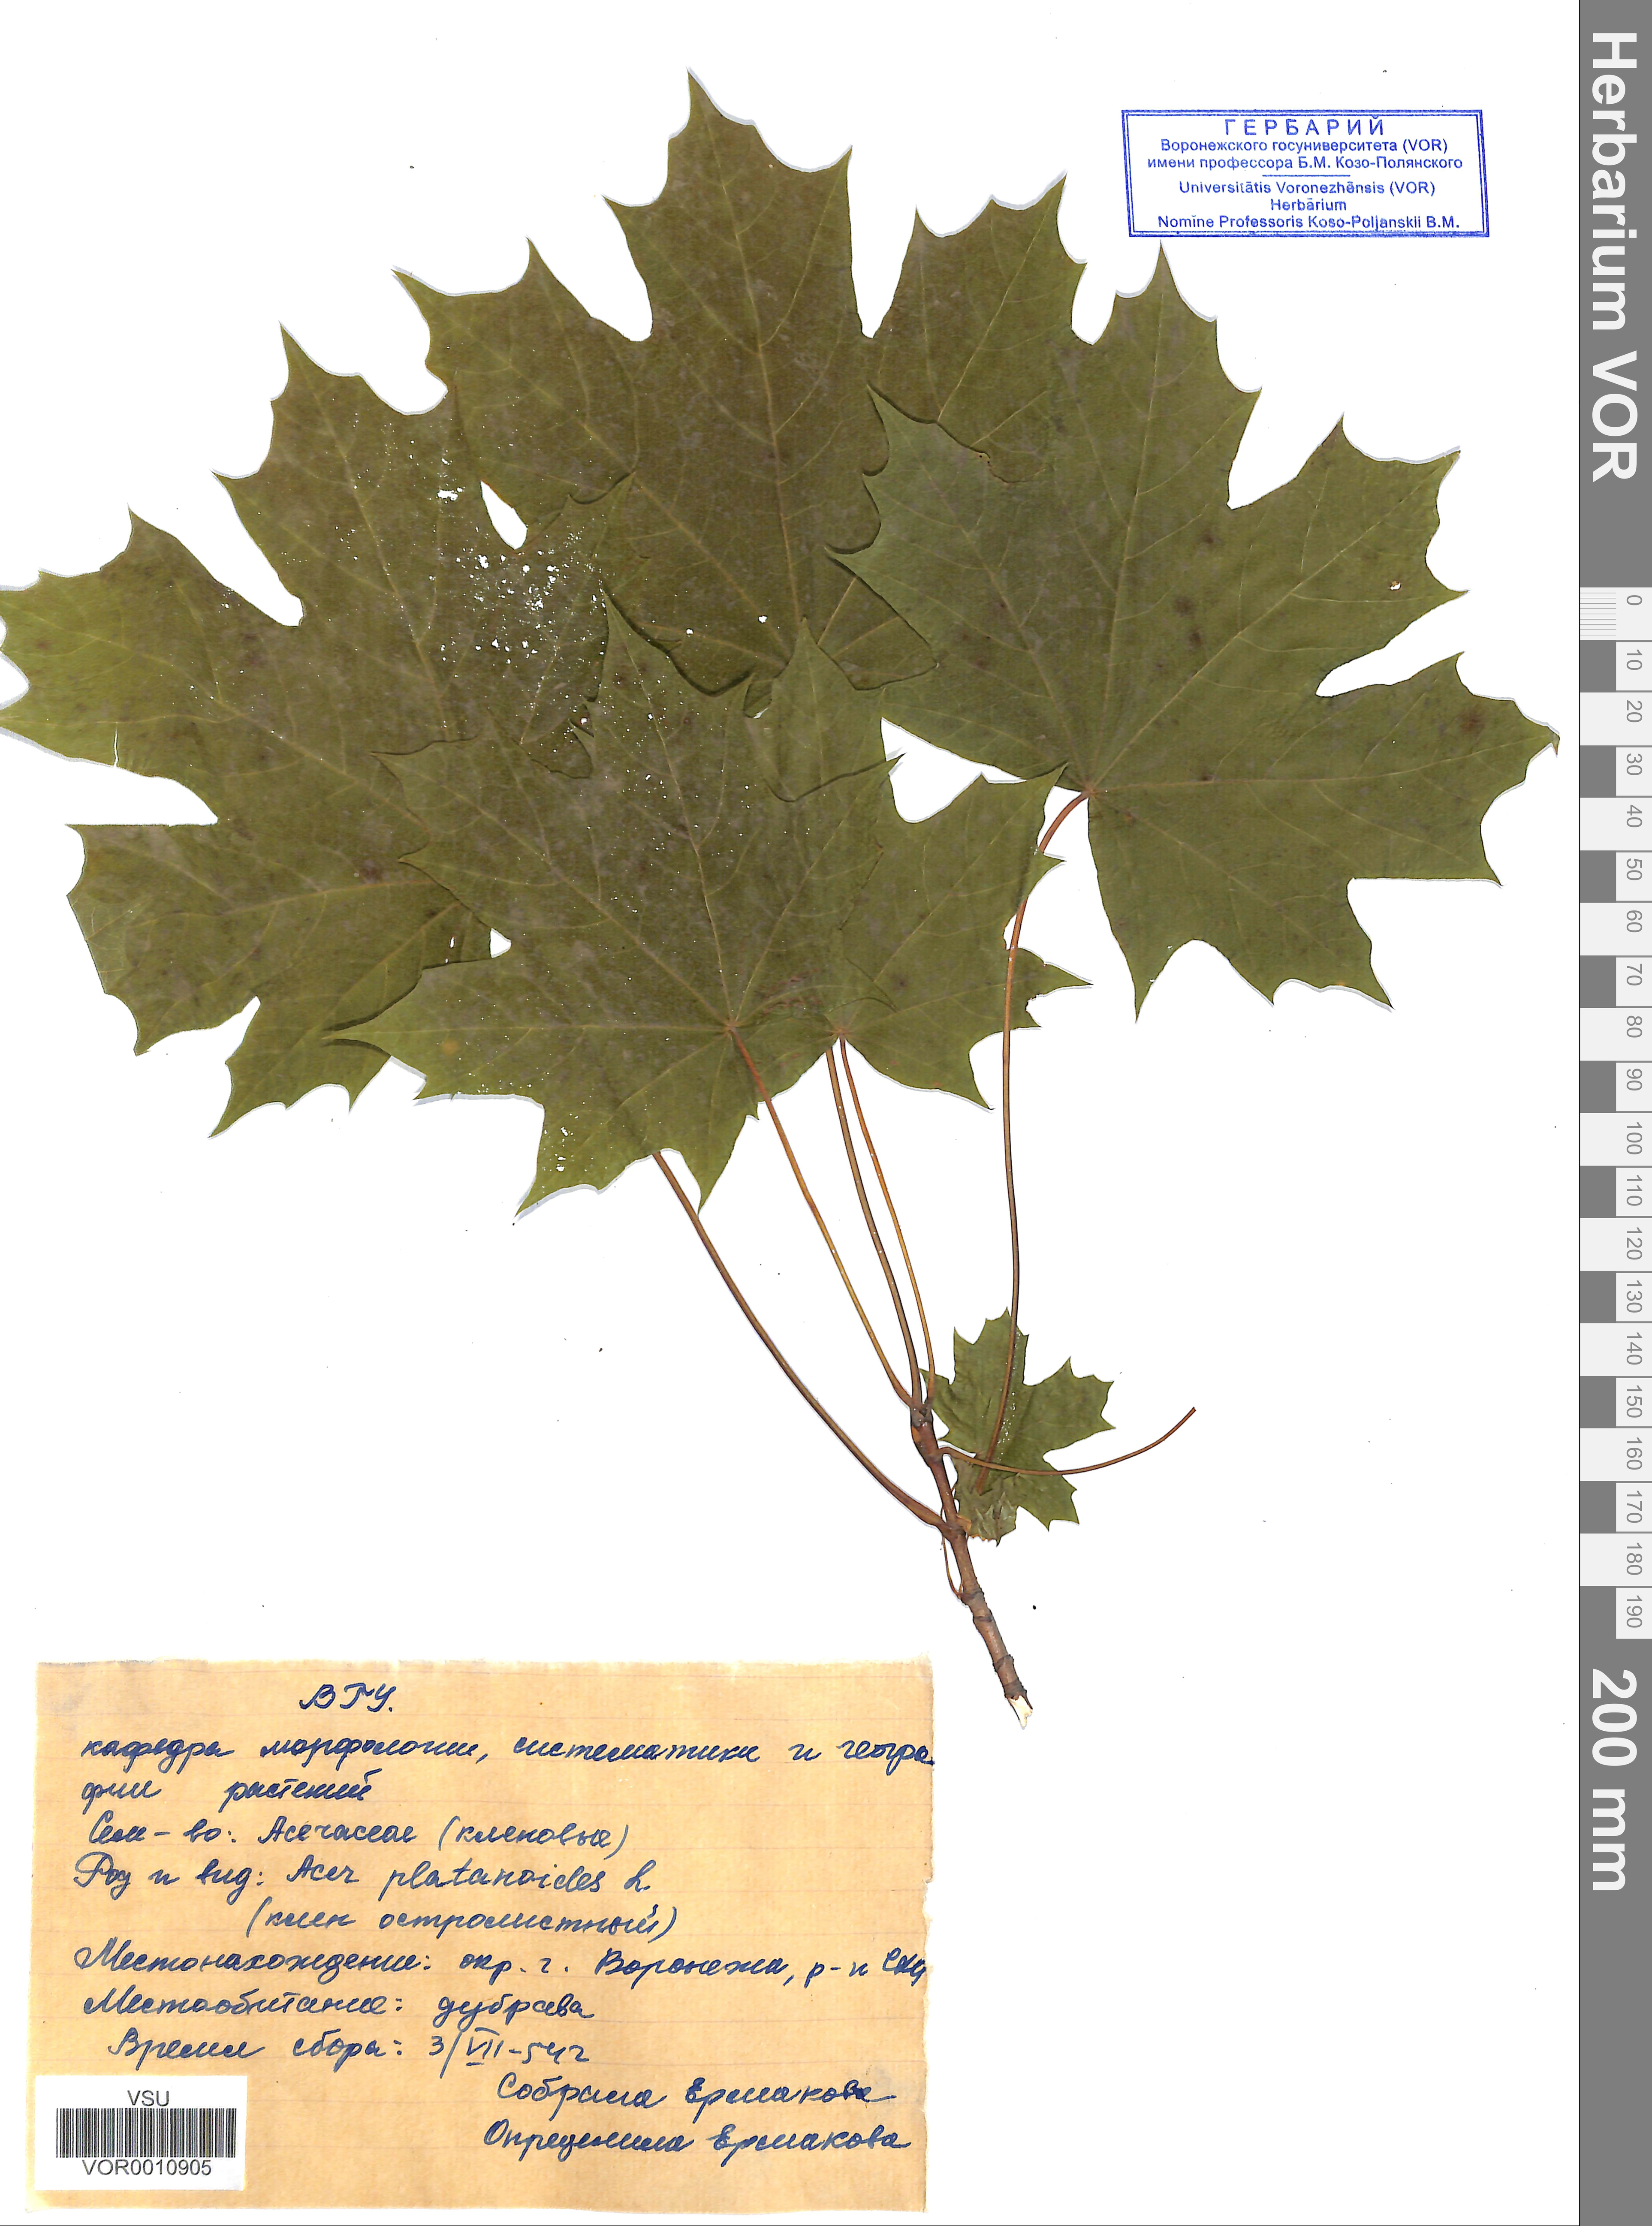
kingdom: Plantae
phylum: Tracheophyta
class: Magnoliopsida
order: Sapindales
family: Sapindaceae
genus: Acer
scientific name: Acer platanoides
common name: Norway maple
